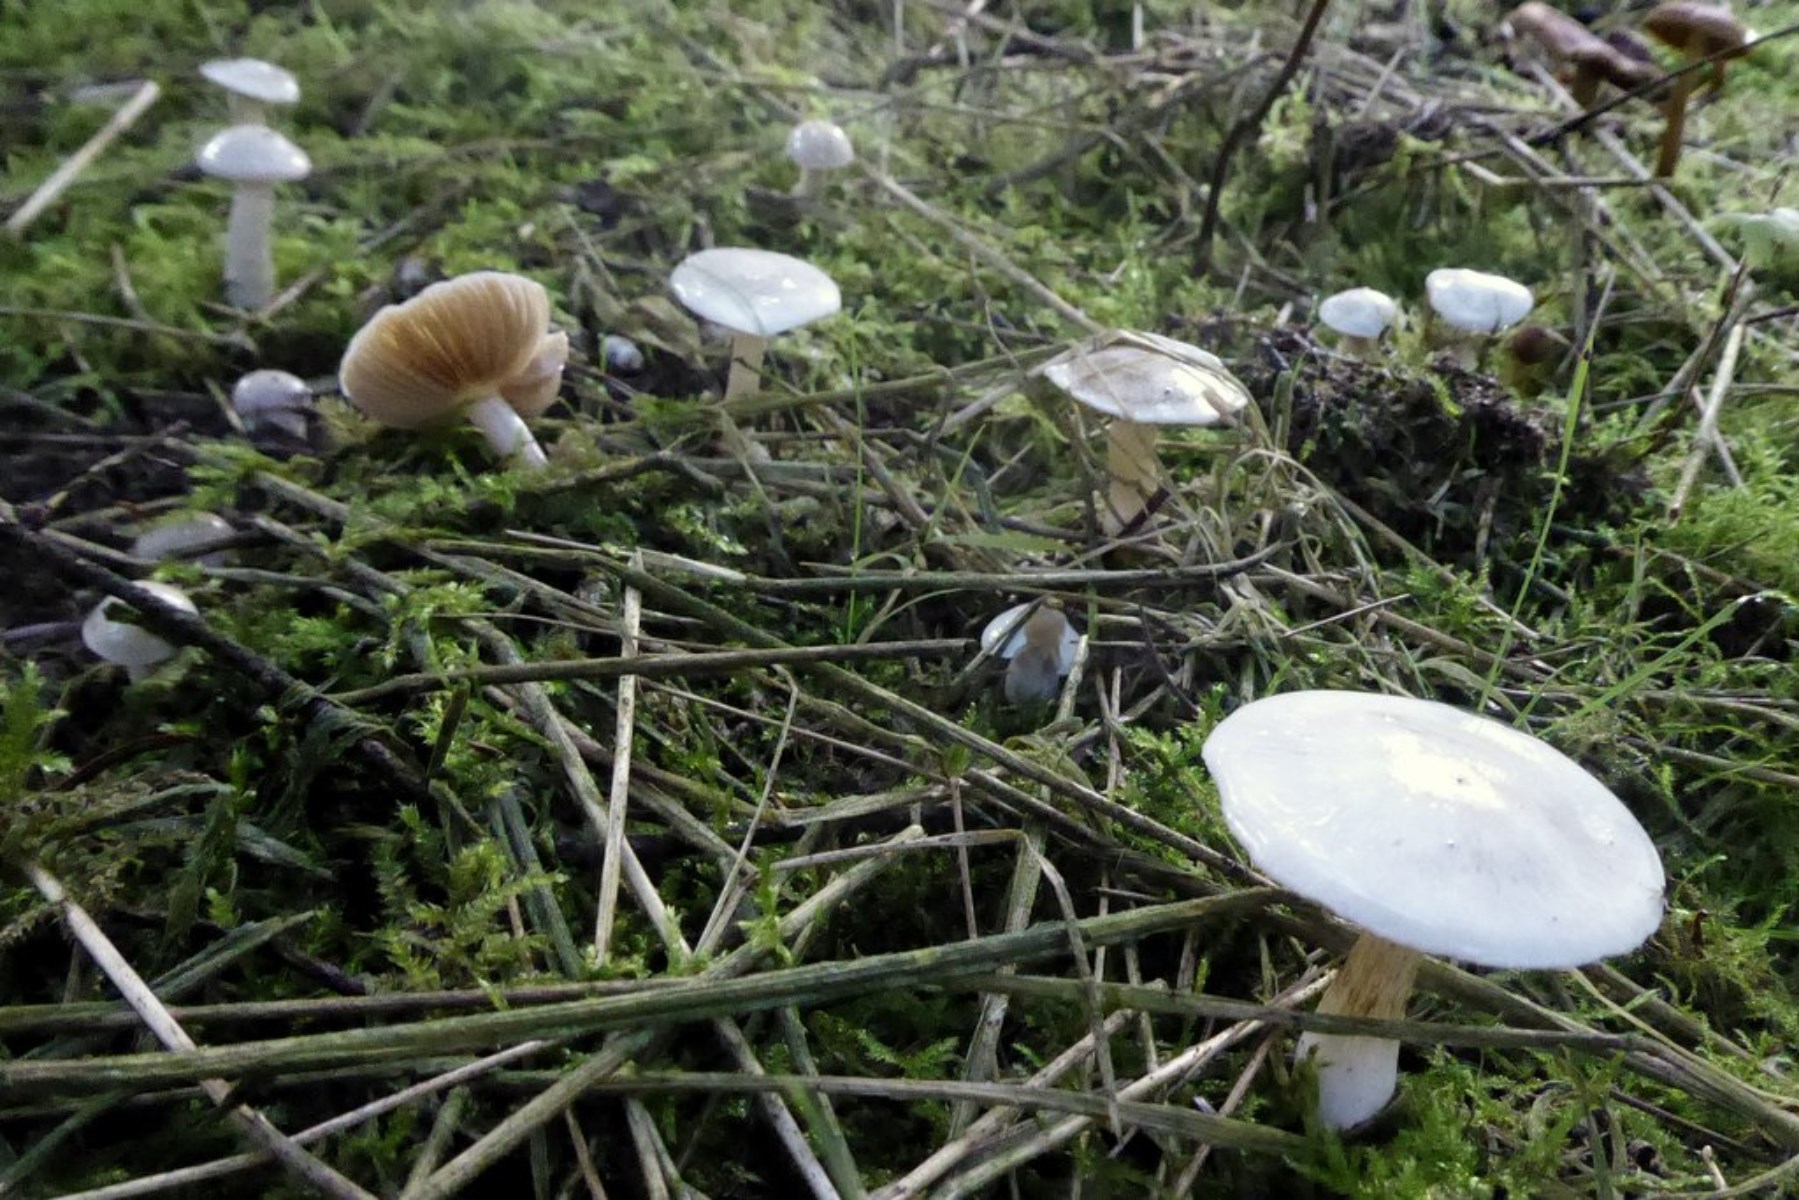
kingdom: Fungi
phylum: Basidiomycota
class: Agaricomycetes
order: Agaricales
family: Cortinariaceae
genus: Cortinarius
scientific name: Cortinarius
